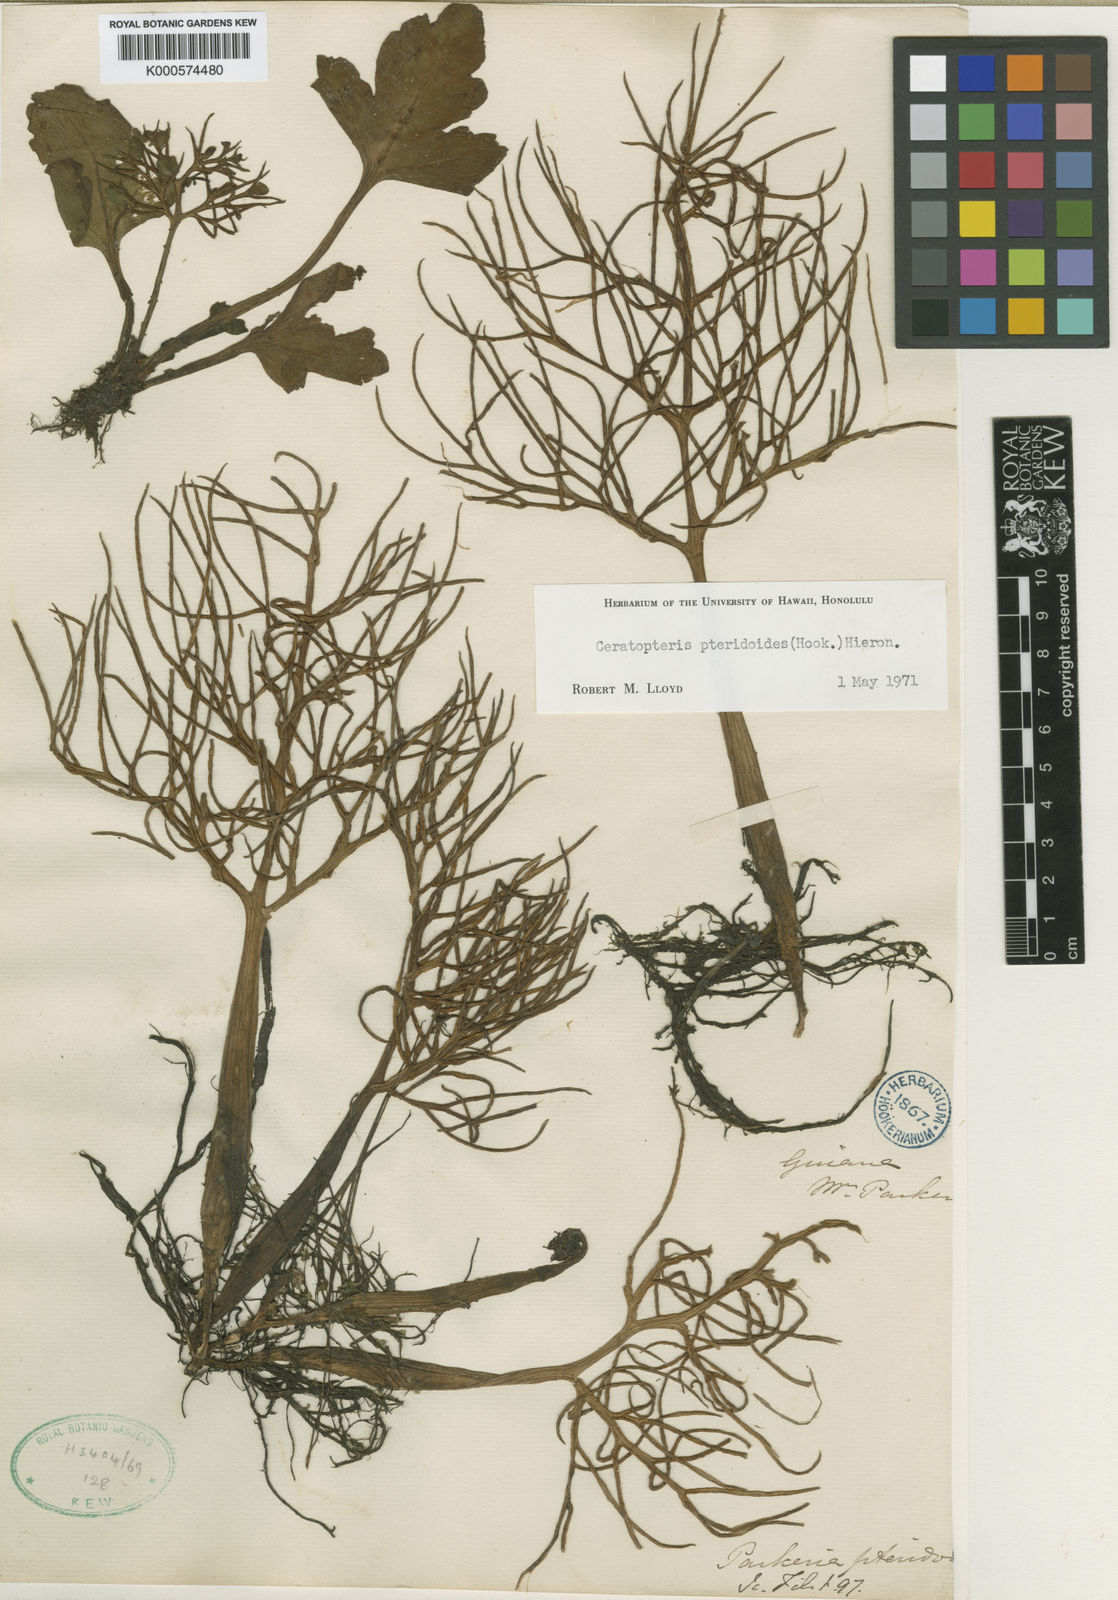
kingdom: Plantae
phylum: Tracheophyta
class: Polypodiopsida
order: Polypodiales
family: Pteridaceae
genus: Ceratopteris
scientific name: Ceratopteris pteridoides
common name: Floating fern
